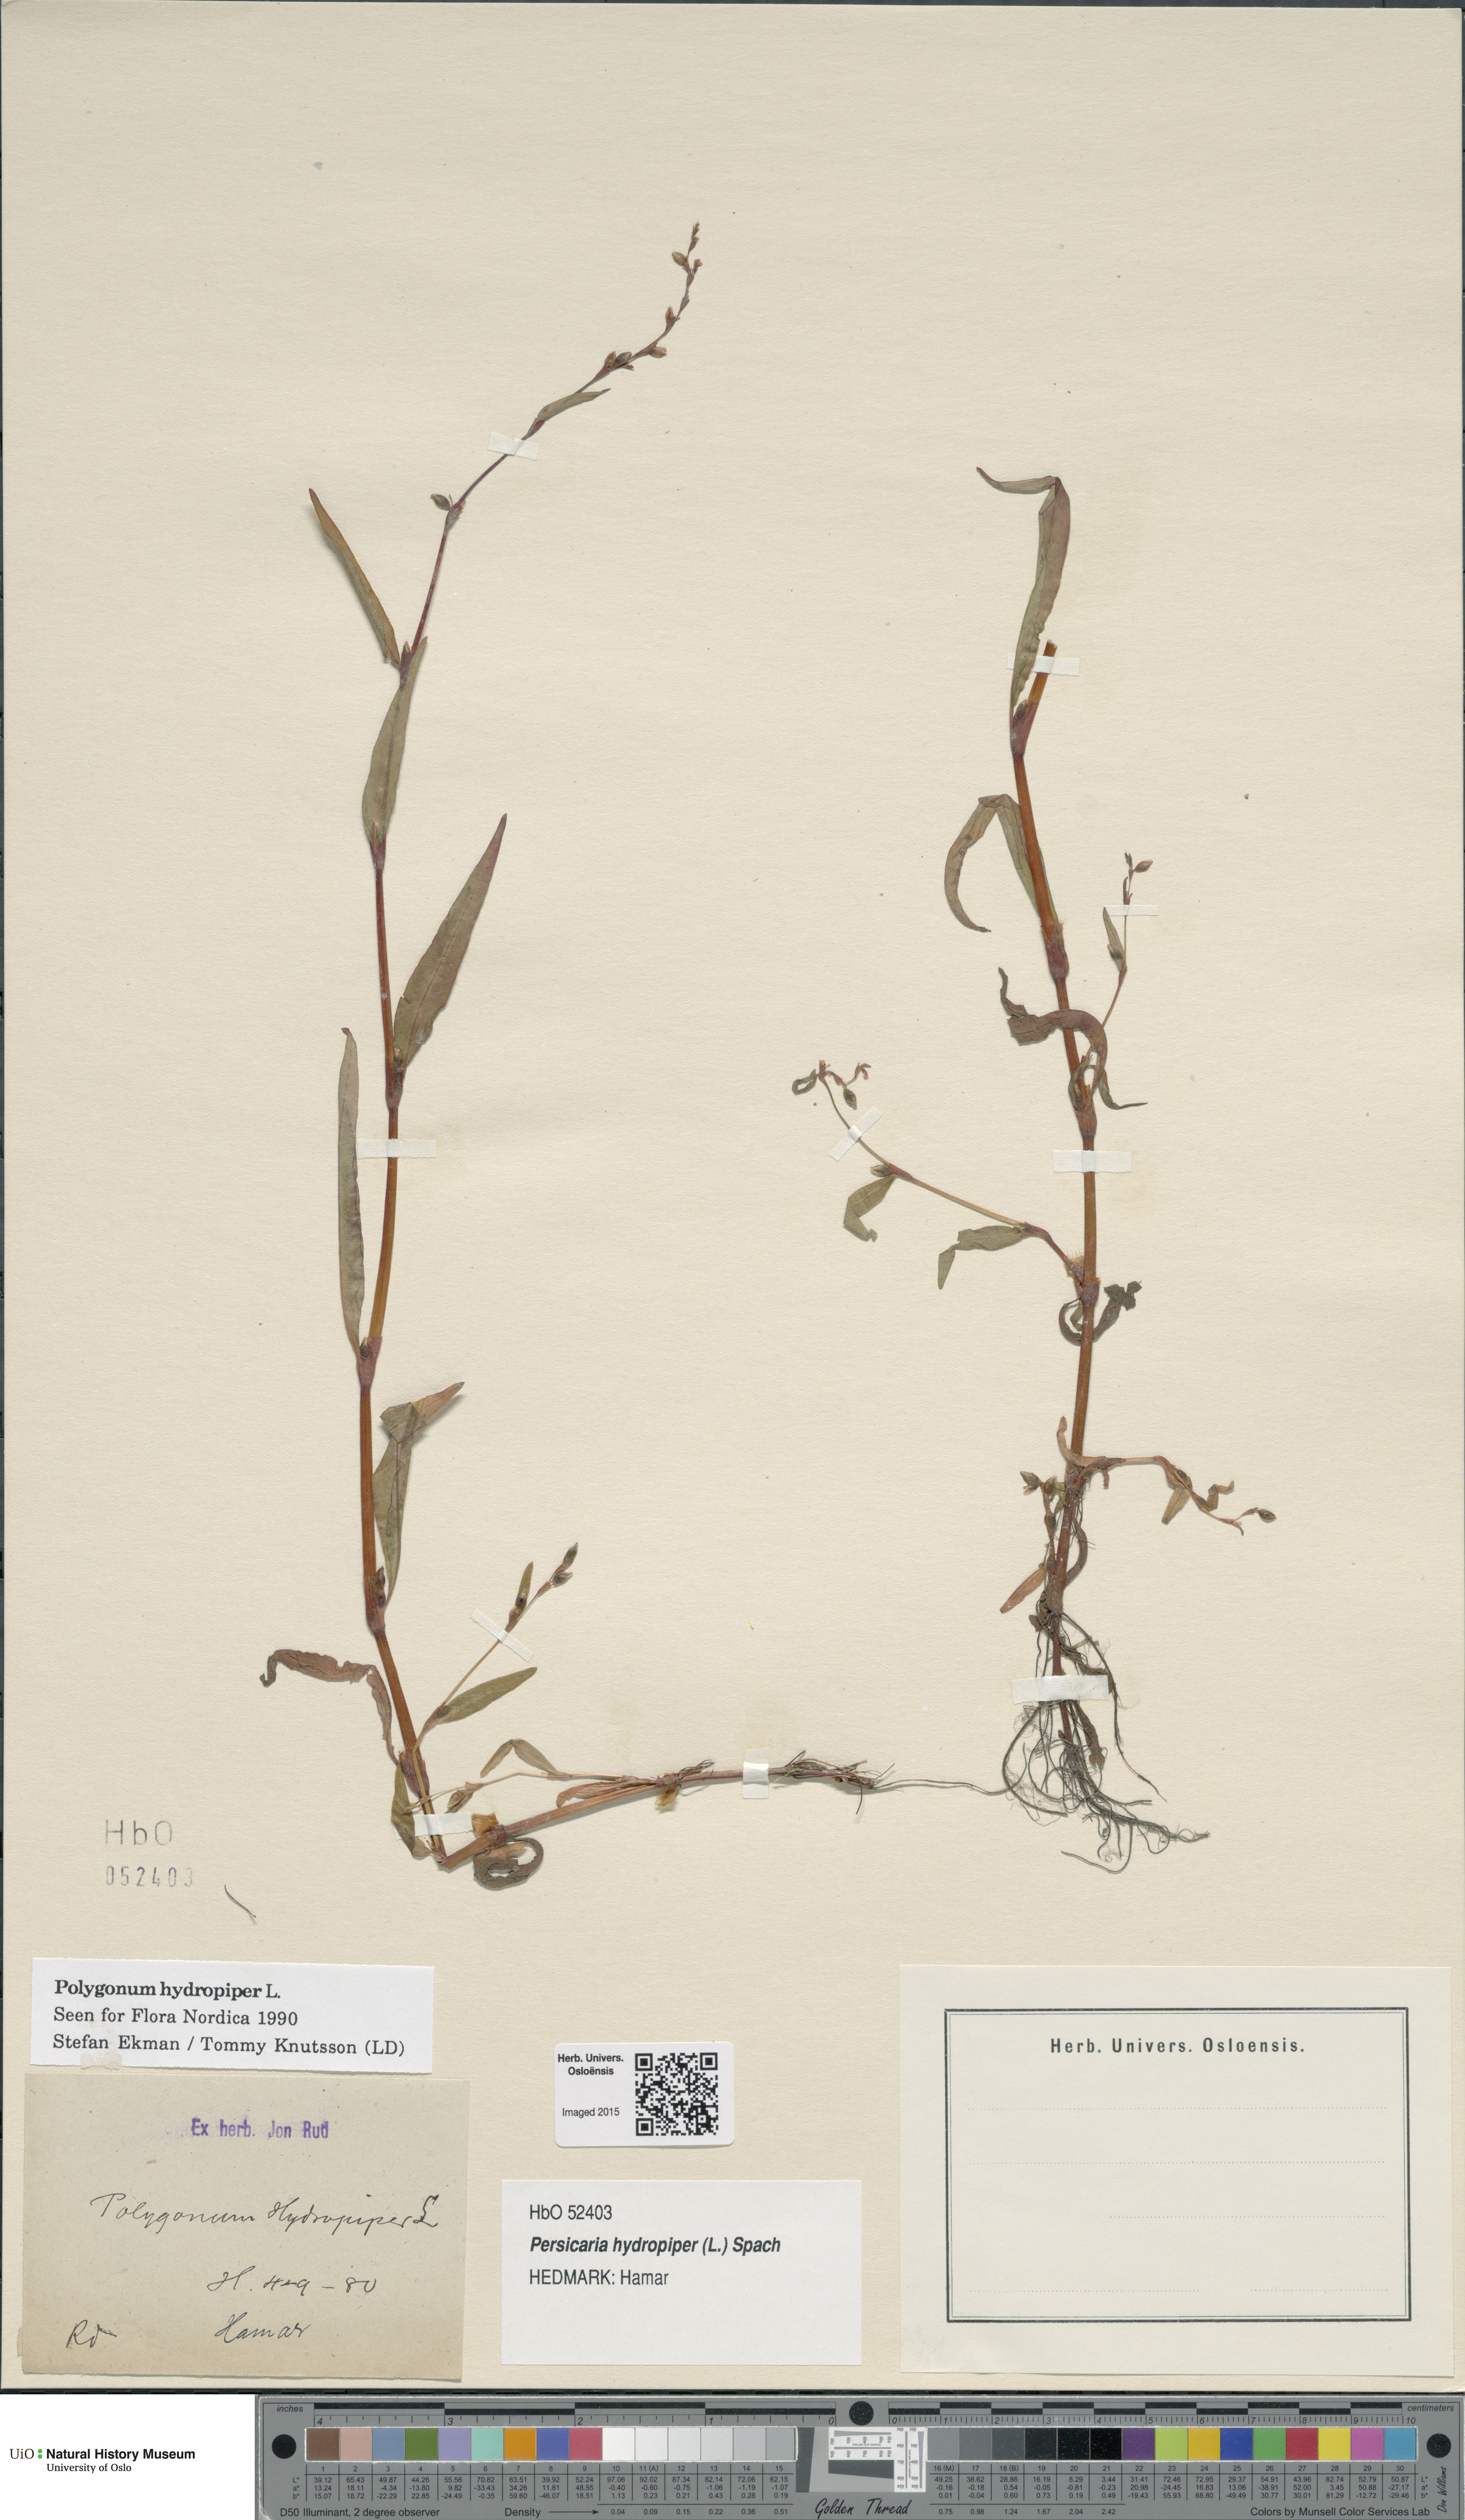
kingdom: Plantae
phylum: Tracheophyta
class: Magnoliopsida
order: Caryophyllales
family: Polygonaceae
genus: Persicaria
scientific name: Persicaria hydropiper
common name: Water-pepper
